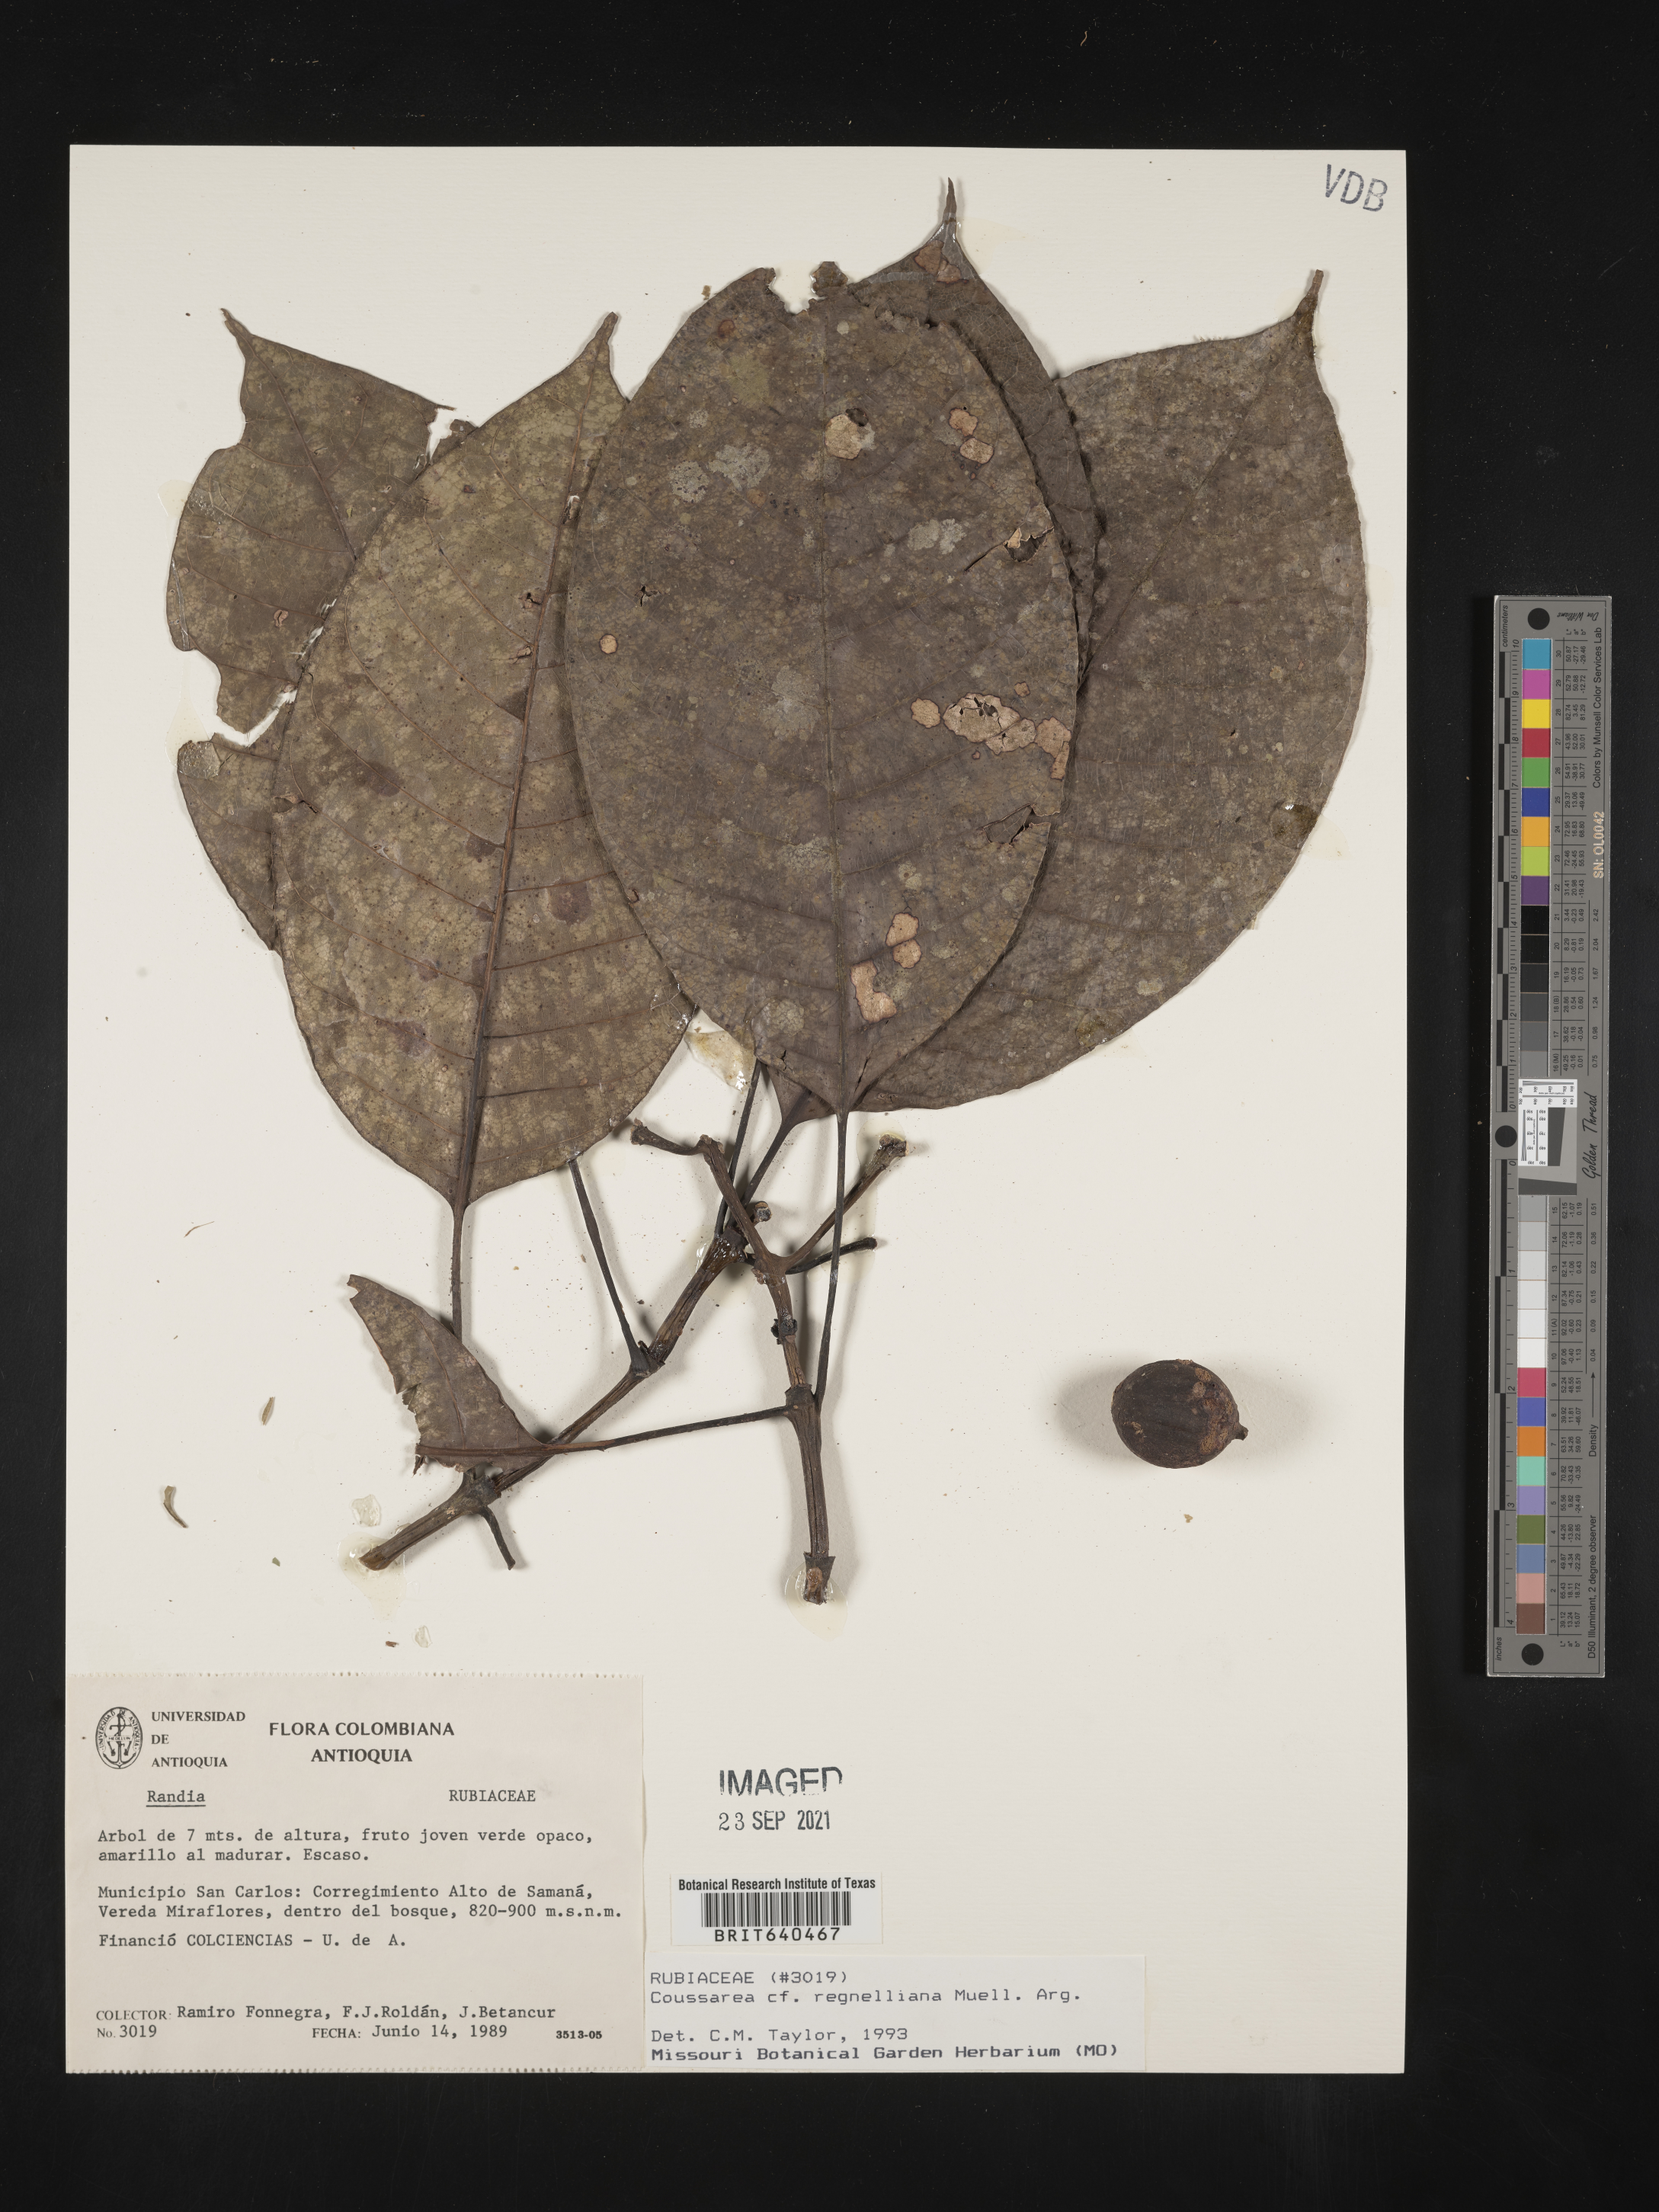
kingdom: Plantae
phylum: Tracheophyta
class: Magnoliopsida
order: Gentianales
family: Rubiaceae
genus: Coussarea
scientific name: Coussarea
